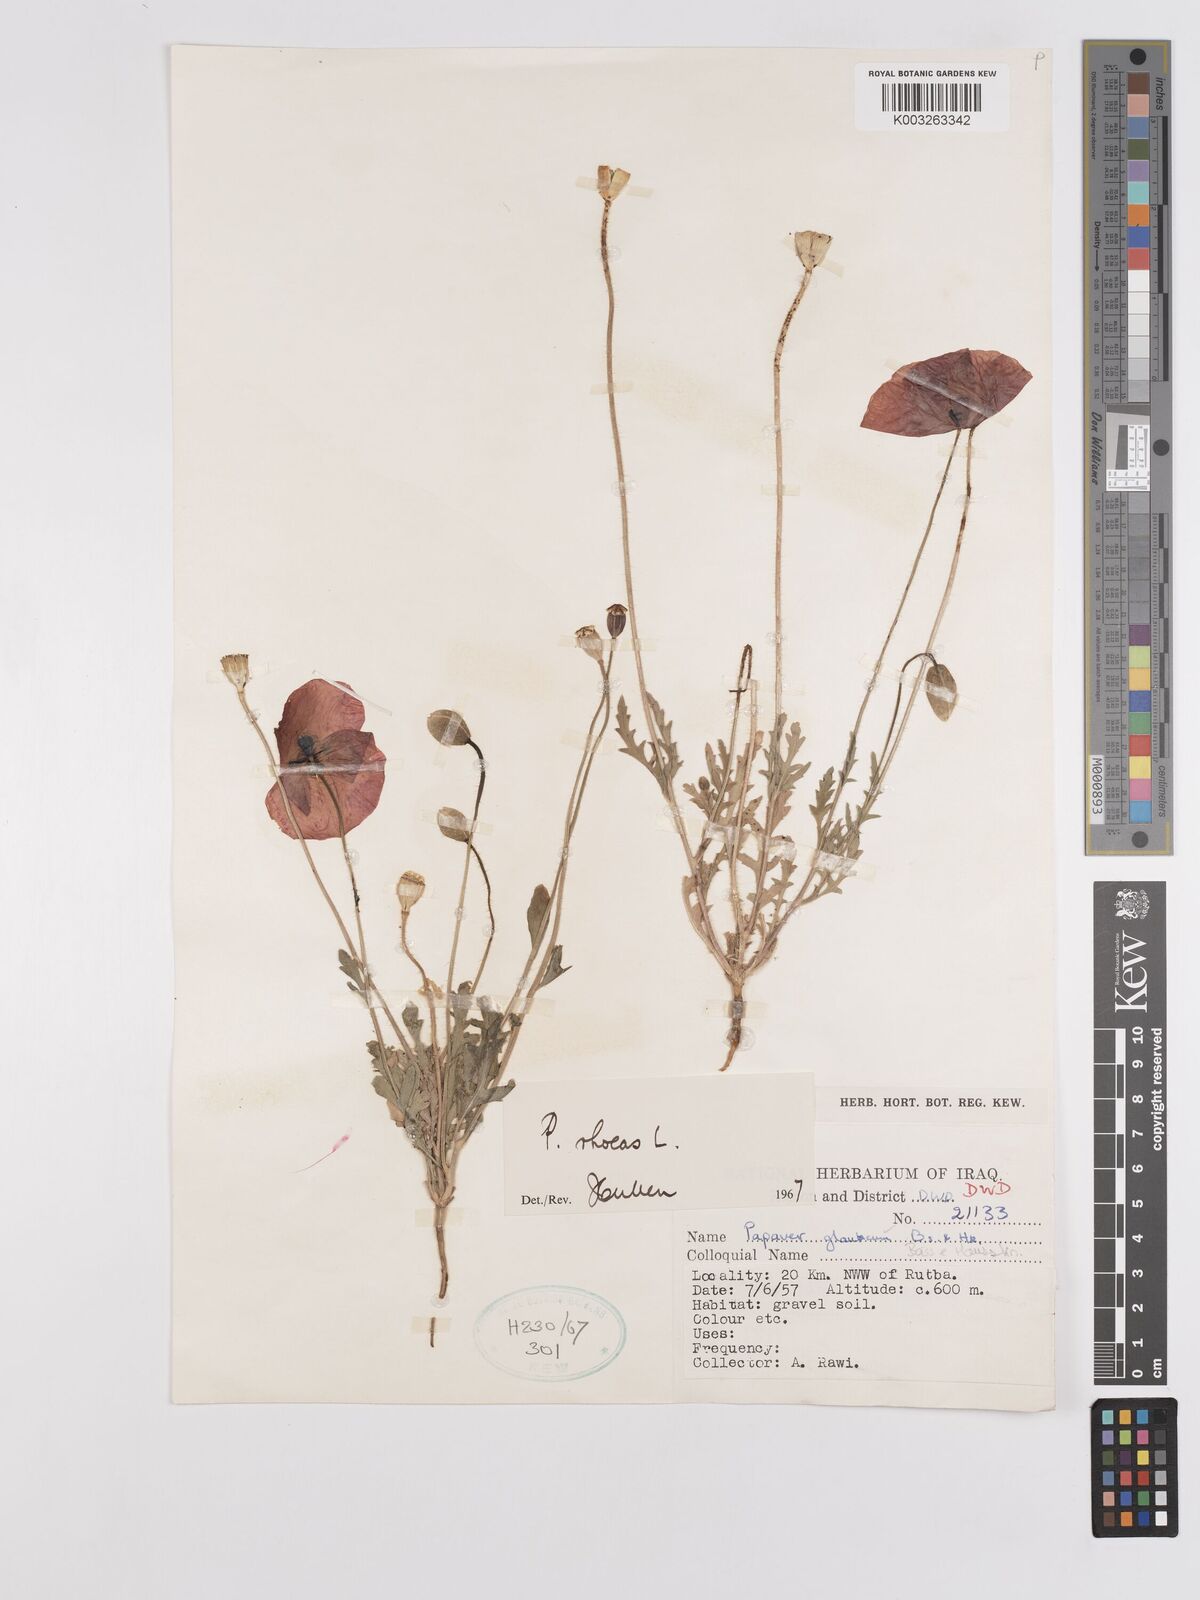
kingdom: Plantae
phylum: Tracheophyta
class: Magnoliopsida
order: Ranunculales
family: Papaveraceae
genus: Papaver
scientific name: Papaver rhoeas
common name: Corn poppy
